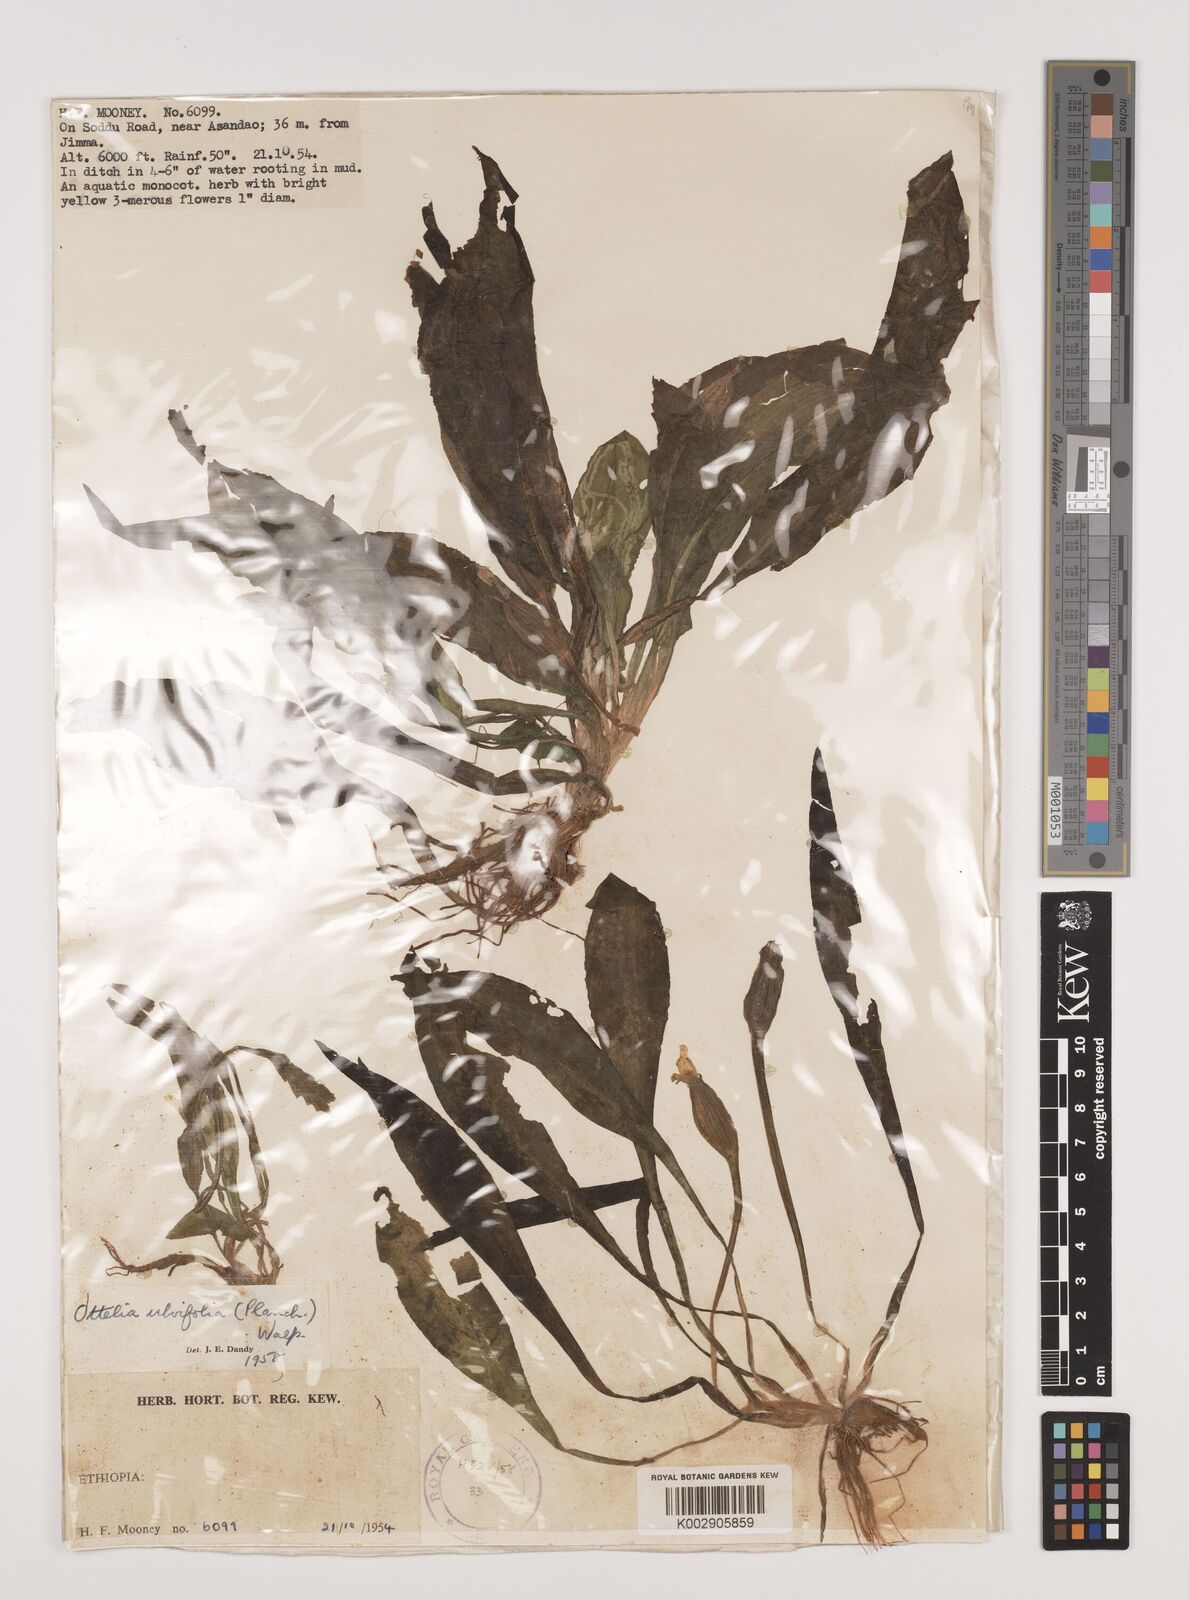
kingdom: Plantae
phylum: Tracheophyta
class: Liliopsida
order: Alismatales
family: Hydrocharitaceae
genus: Ottelia
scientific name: Ottelia ulvifolia
